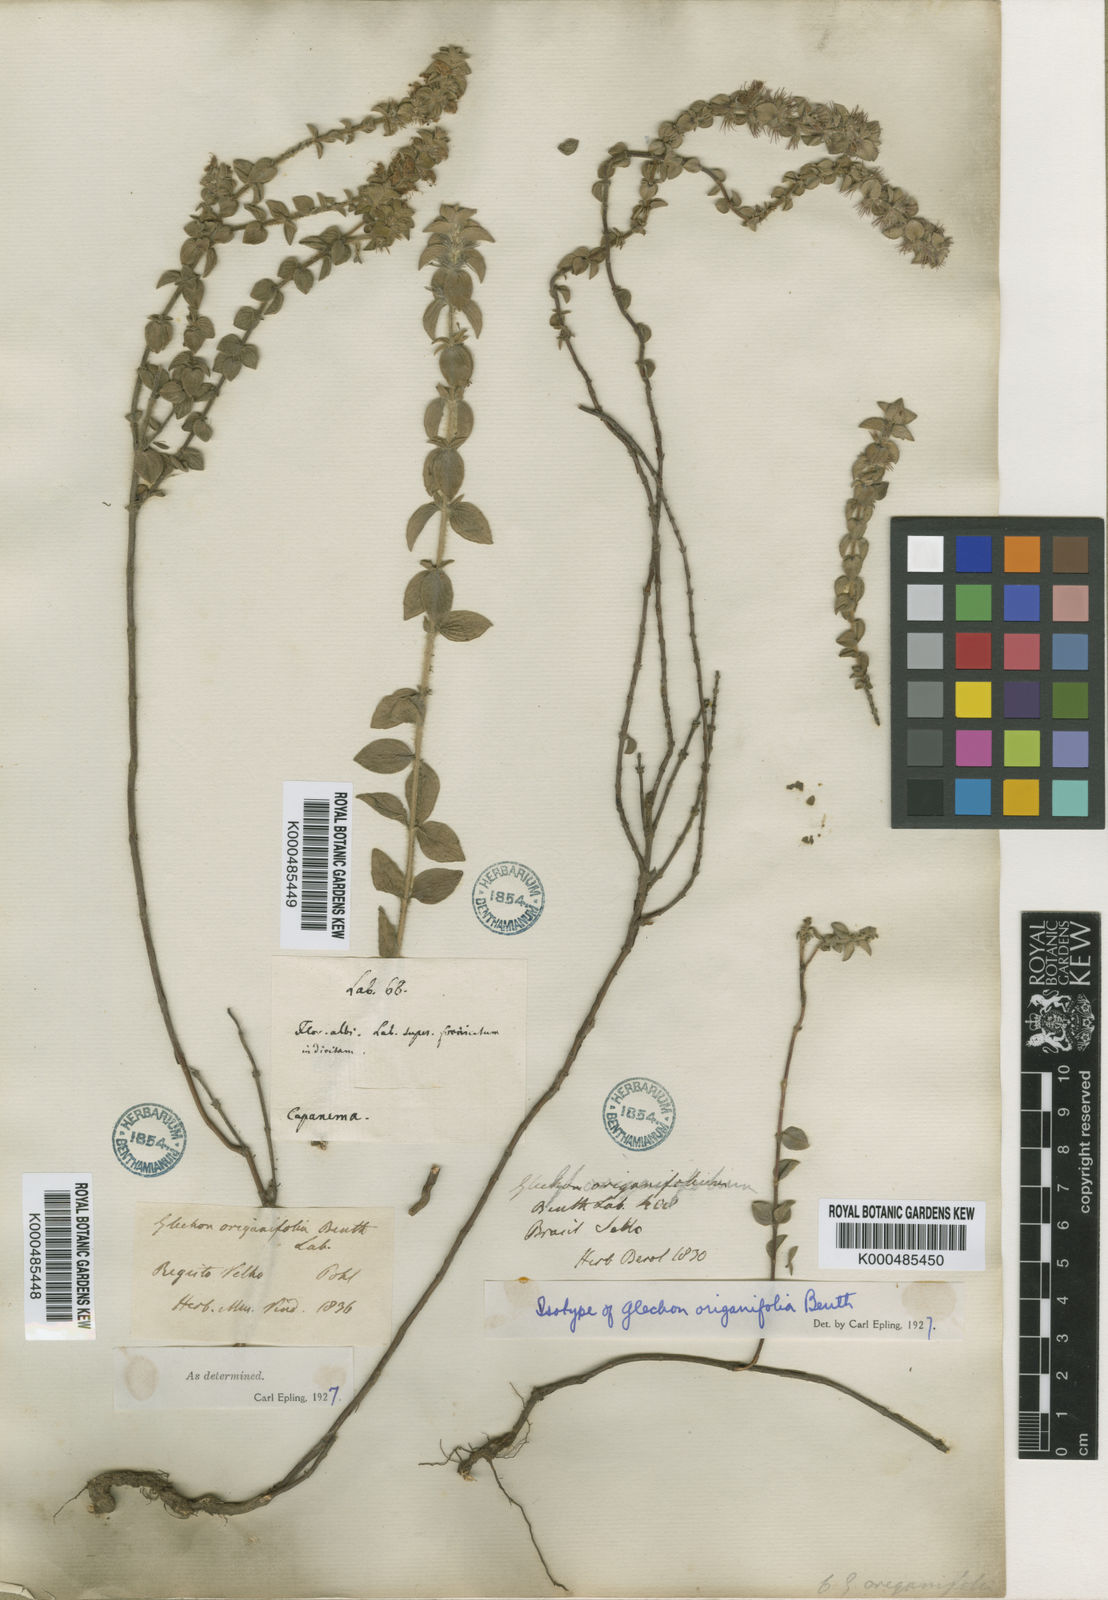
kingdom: Plantae
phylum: Tracheophyta
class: Magnoliopsida
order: Lamiales
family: Lamiaceae
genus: Glechon
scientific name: Glechon ciliata
